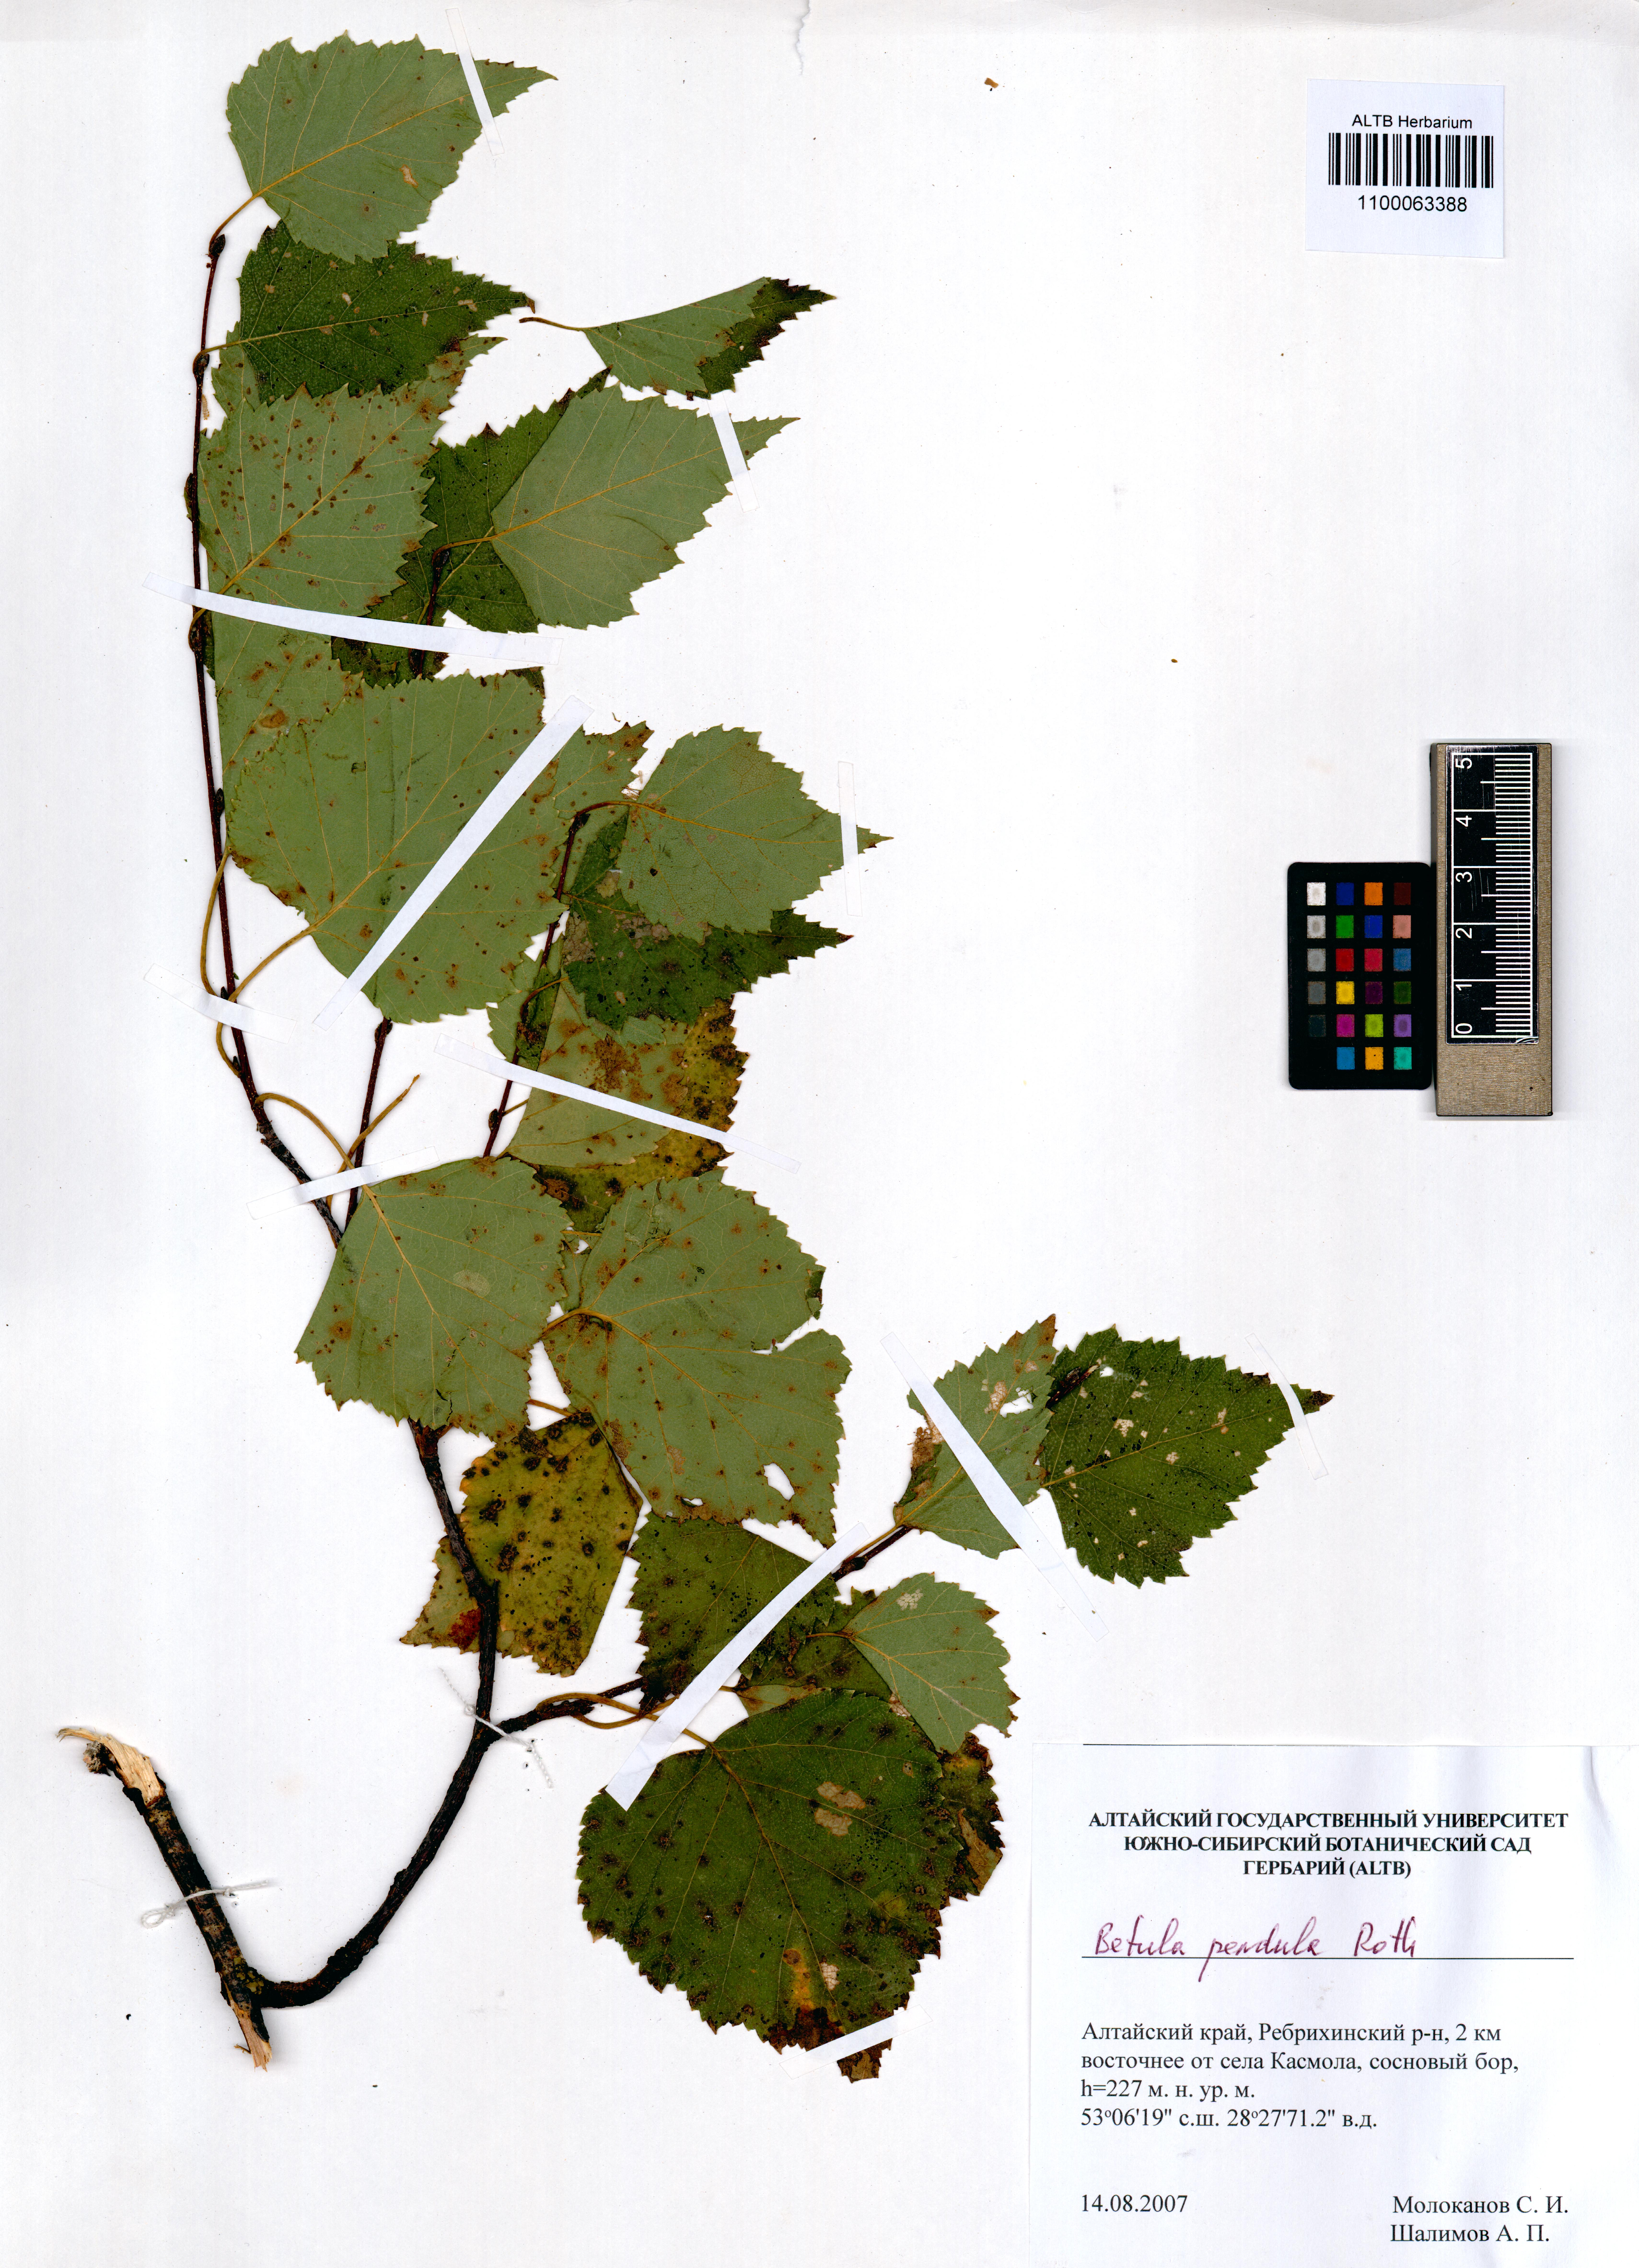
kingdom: Plantae
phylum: Tracheophyta
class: Magnoliopsida
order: Fagales
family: Betulaceae
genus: Betula
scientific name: Betula pendula
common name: Silver birch
